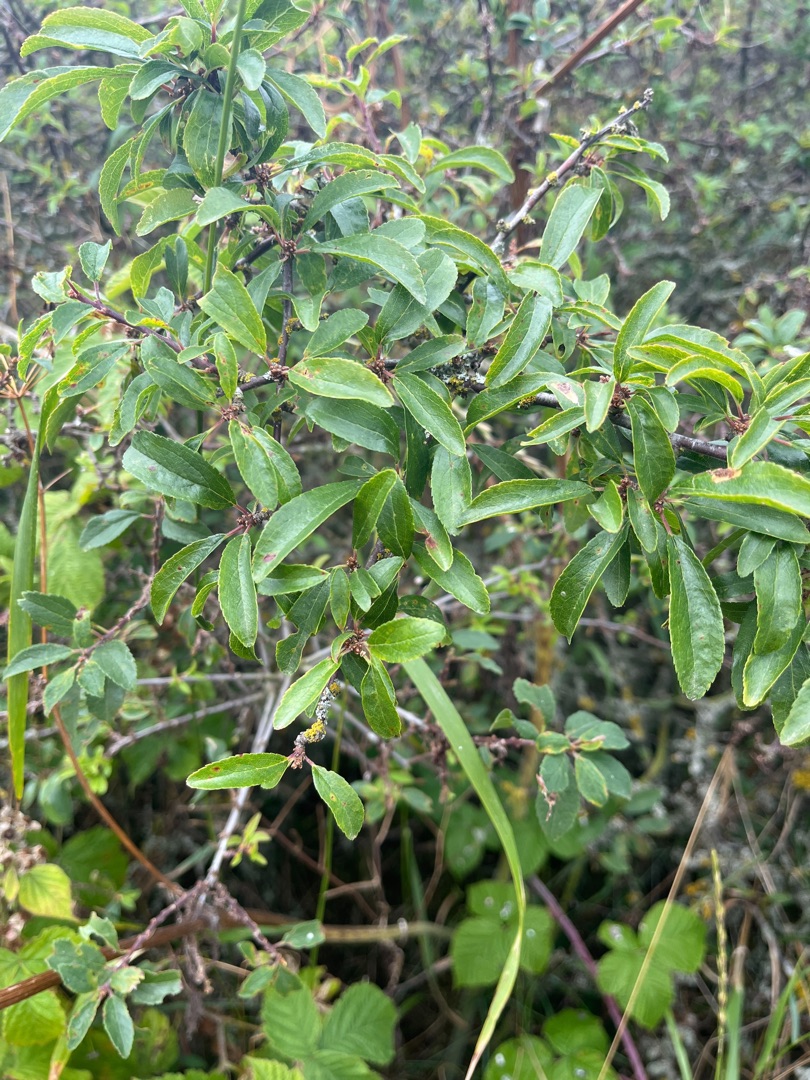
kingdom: Plantae
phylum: Tracheophyta
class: Magnoliopsida
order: Rosales
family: Rosaceae
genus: Prunus
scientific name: Prunus spinosa
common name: Slåen
